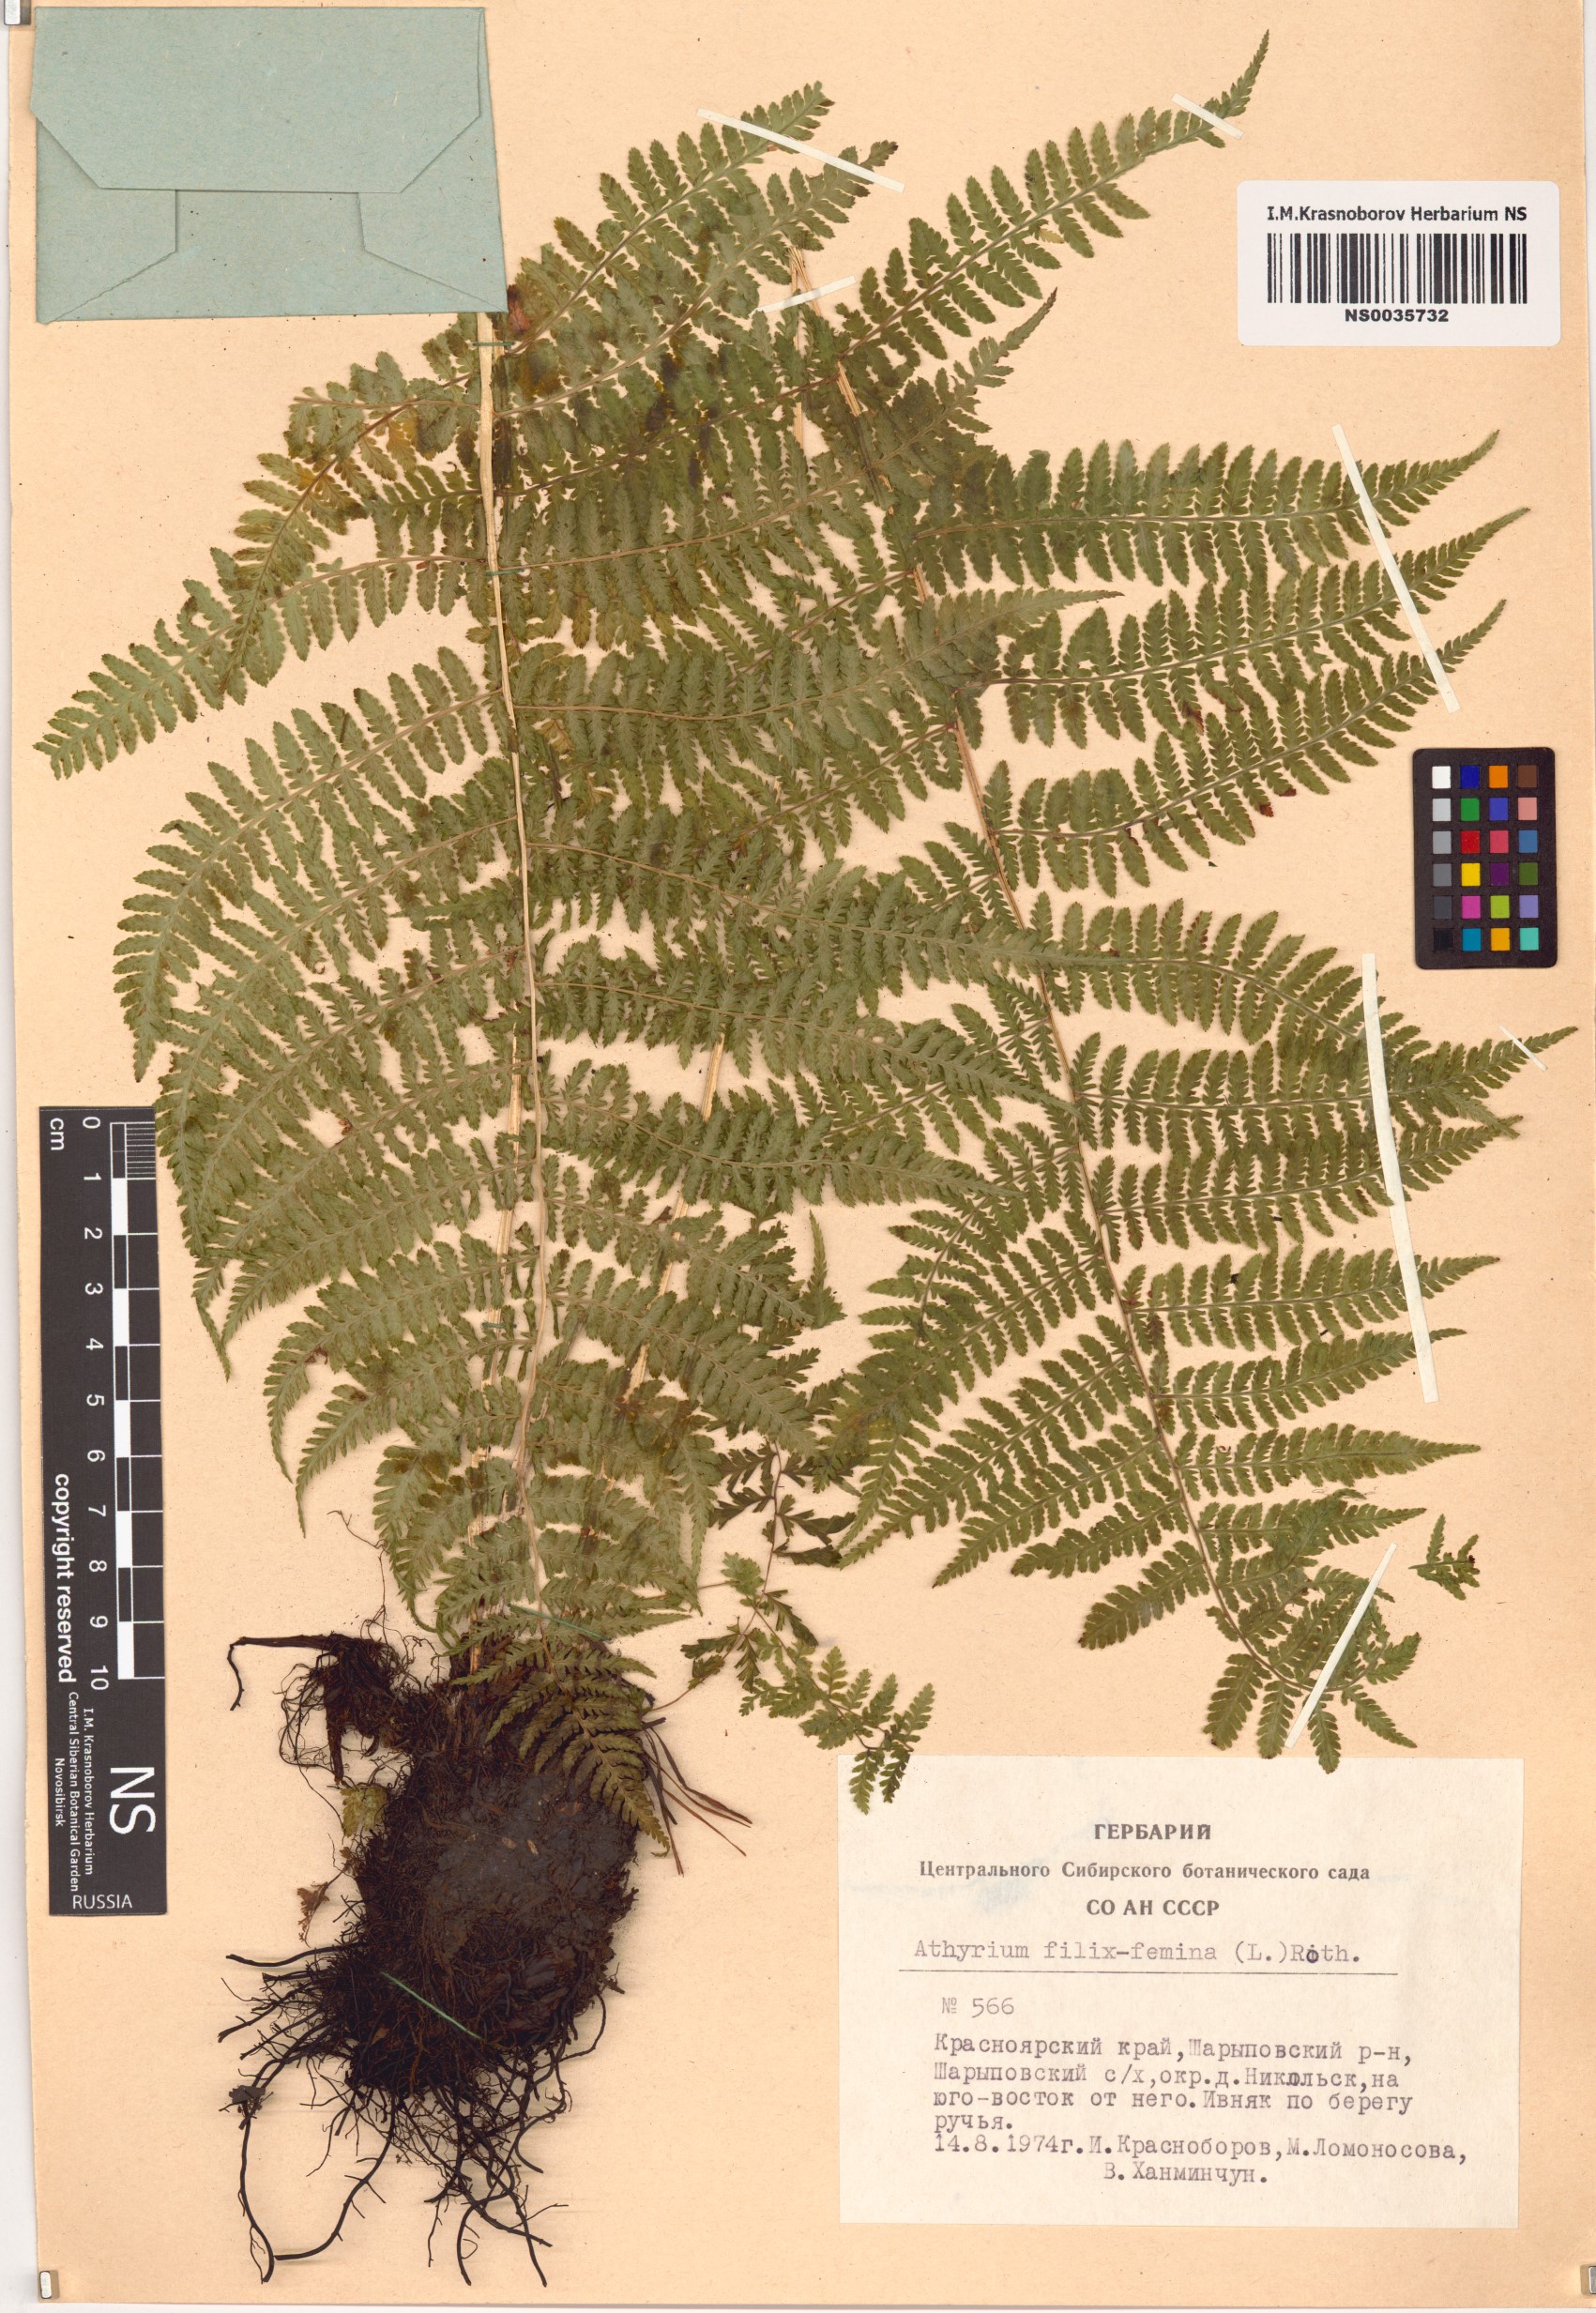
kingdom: Plantae
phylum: Tracheophyta
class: Polypodiopsida
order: Polypodiales
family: Athyriaceae
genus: Athyrium
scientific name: Athyrium filix-femina
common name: Lady fern
